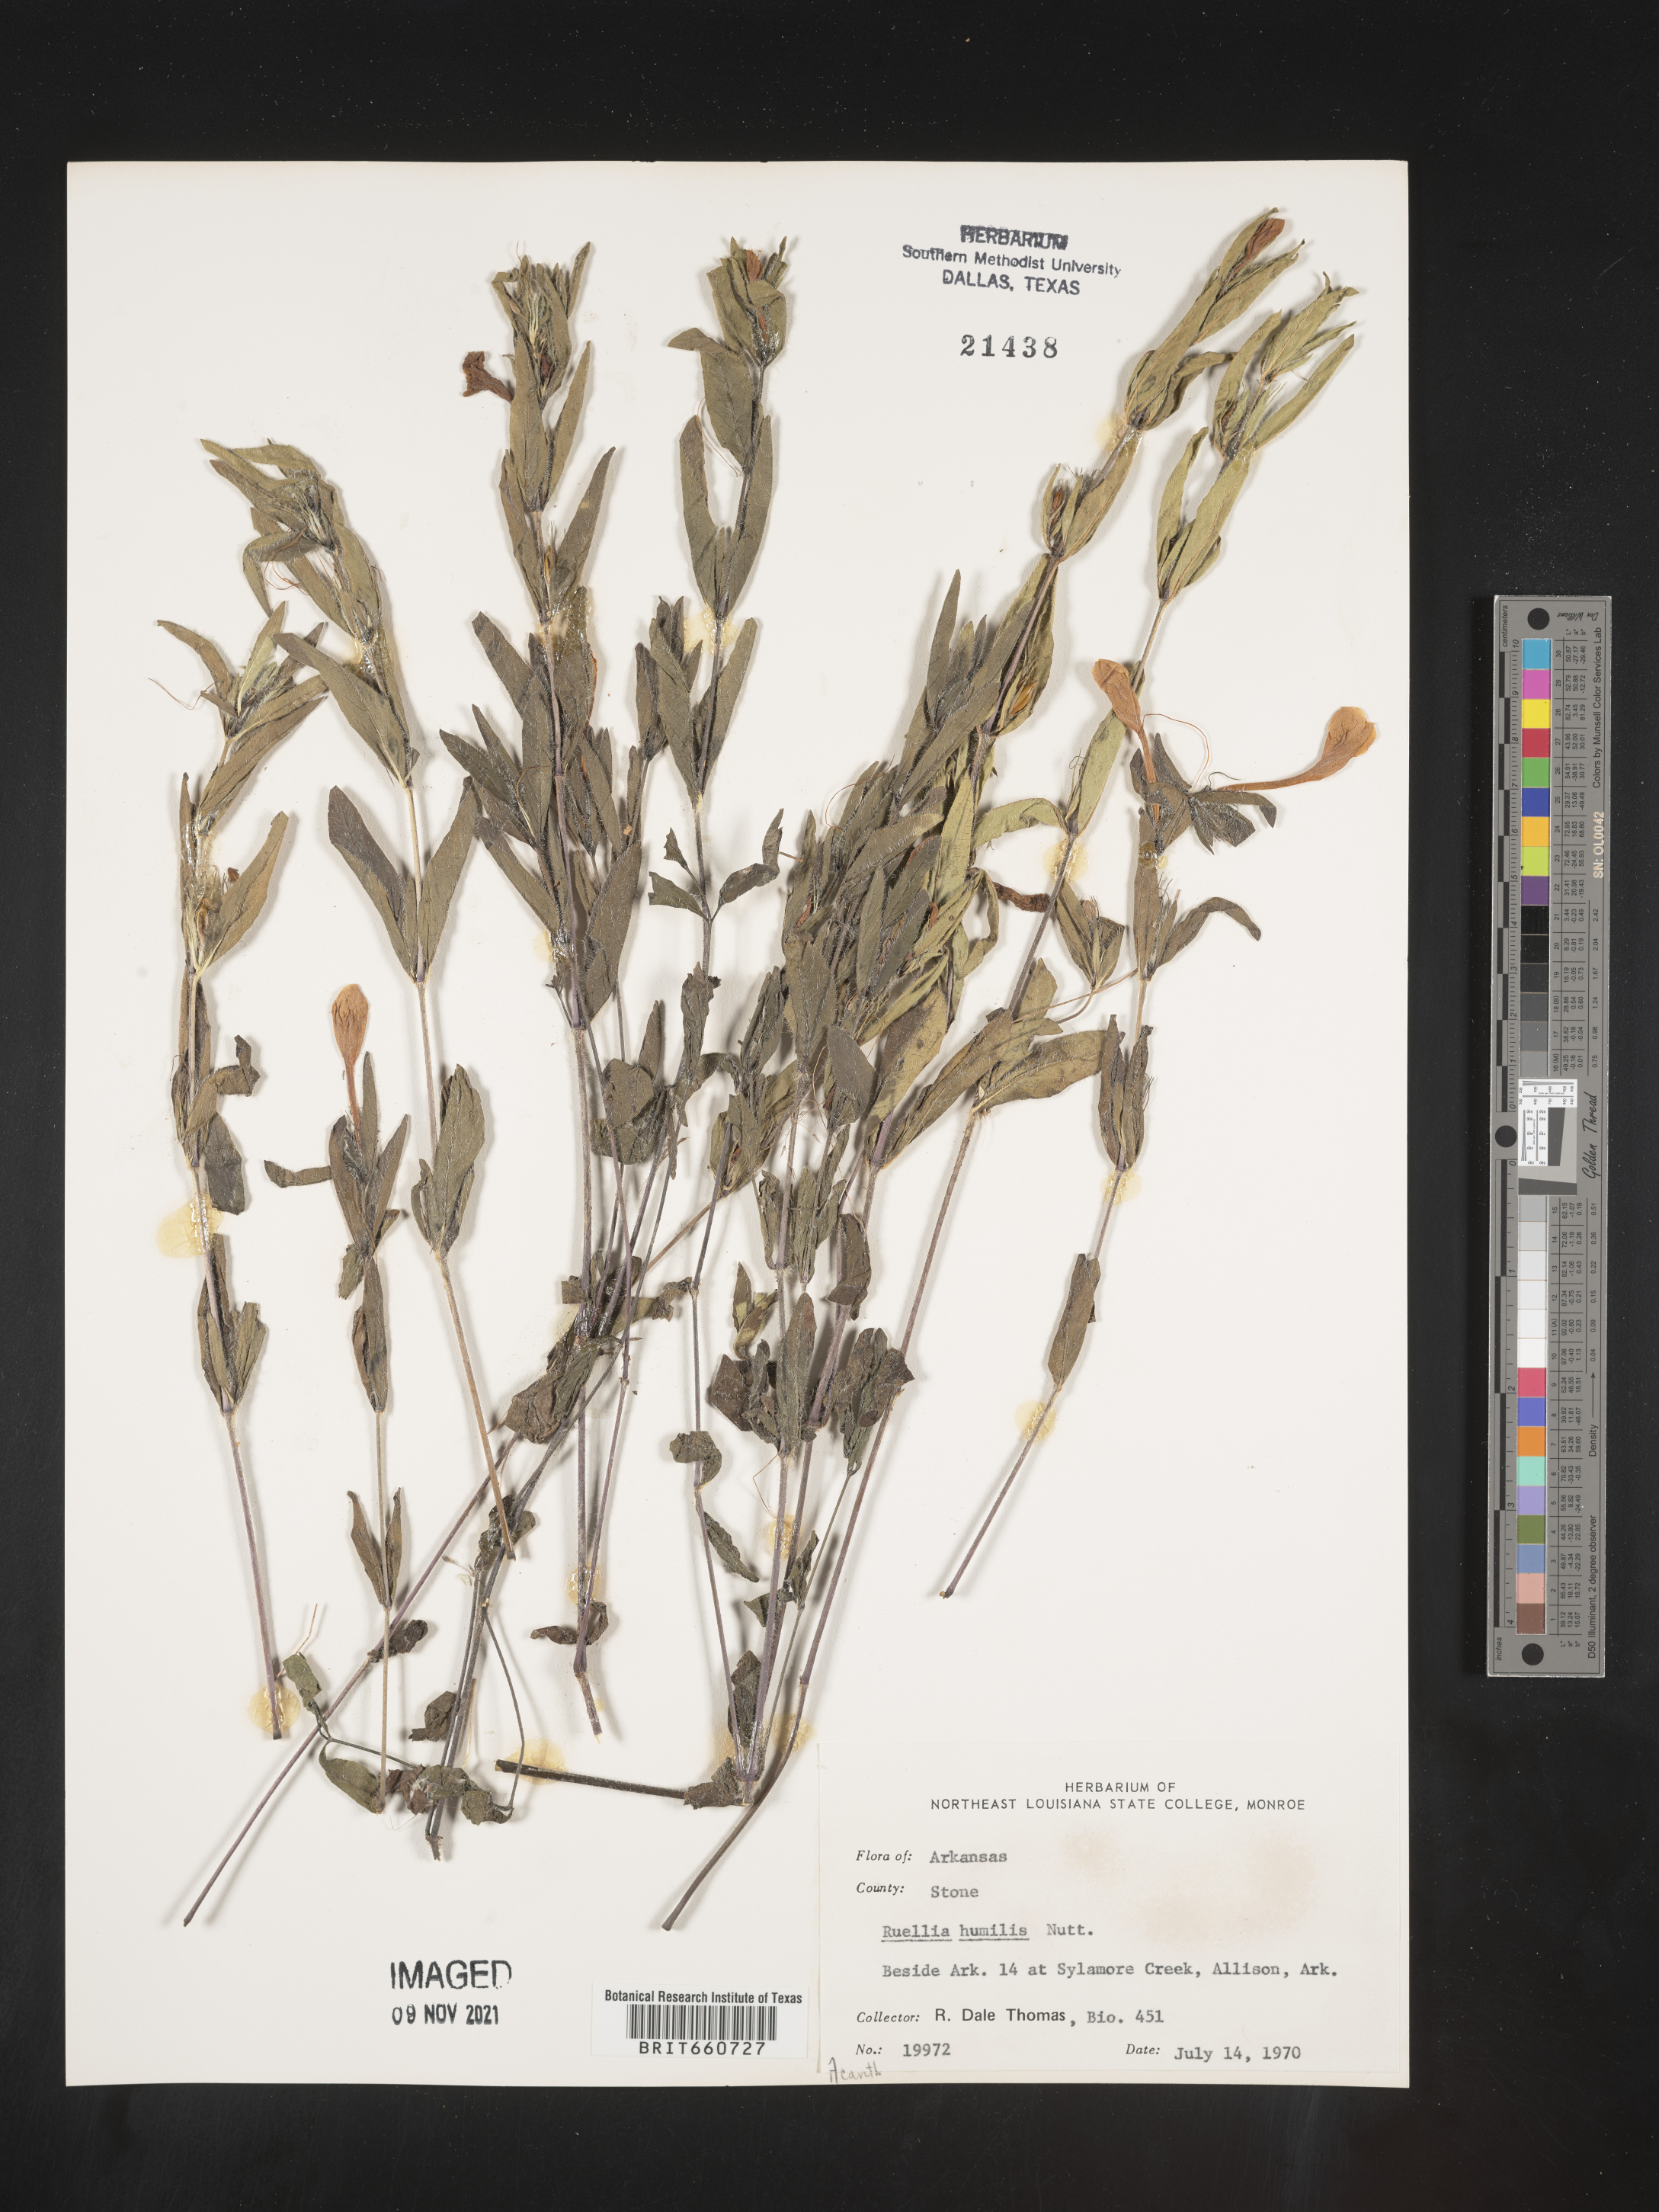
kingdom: Plantae
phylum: Tracheophyta
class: Magnoliopsida
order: Lamiales
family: Acanthaceae
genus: Ruellia
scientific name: Ruellia humilis
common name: Fringe-leaf ruellia
